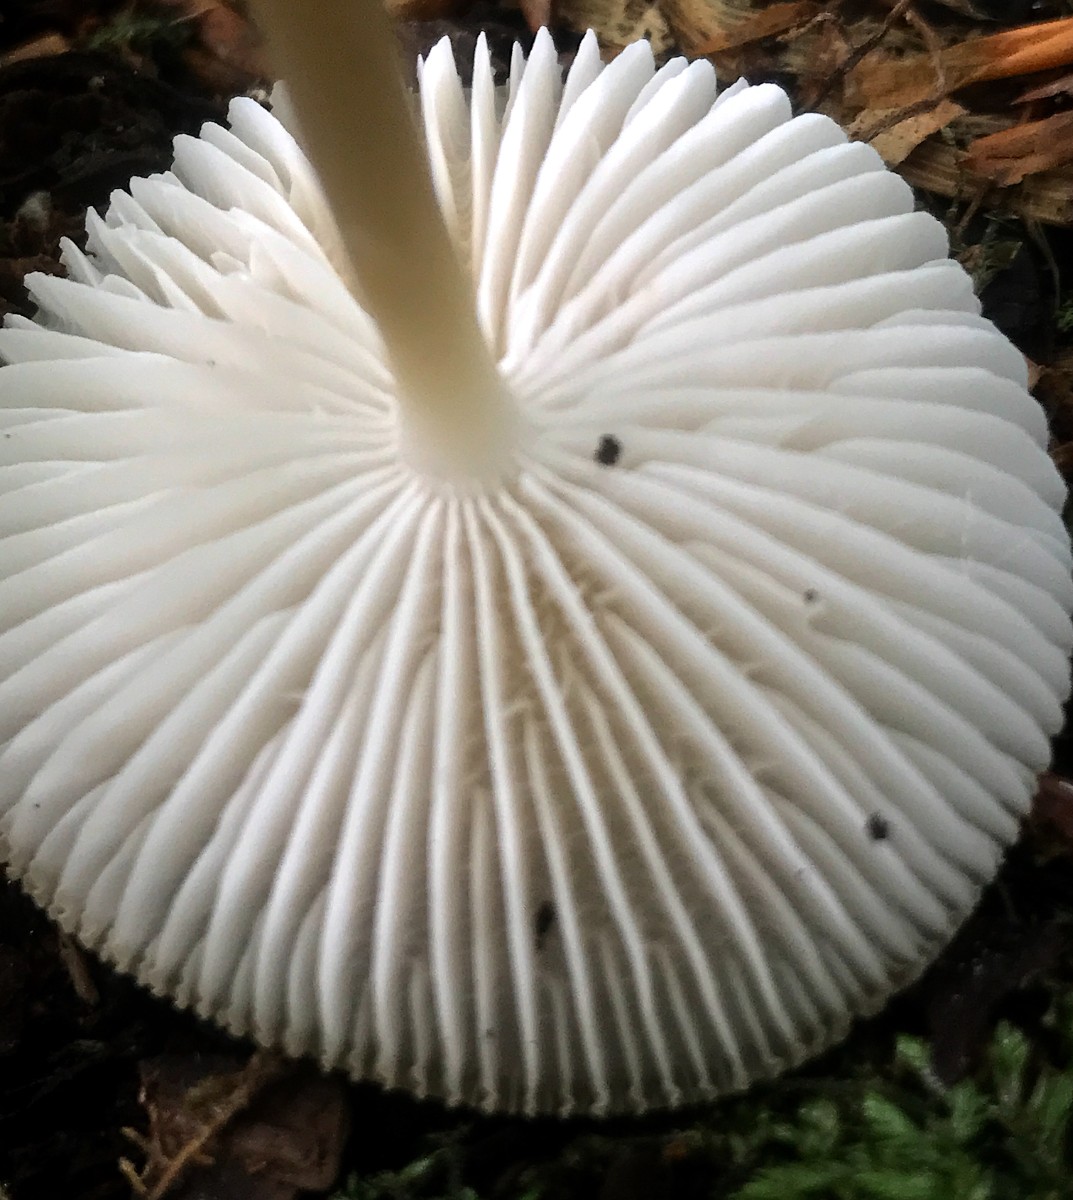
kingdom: Fungi
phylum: Basidiomycota
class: Agaricomycetes
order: Agaricales
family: Mycenaceae
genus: Mycena
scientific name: Mycena galericulata
